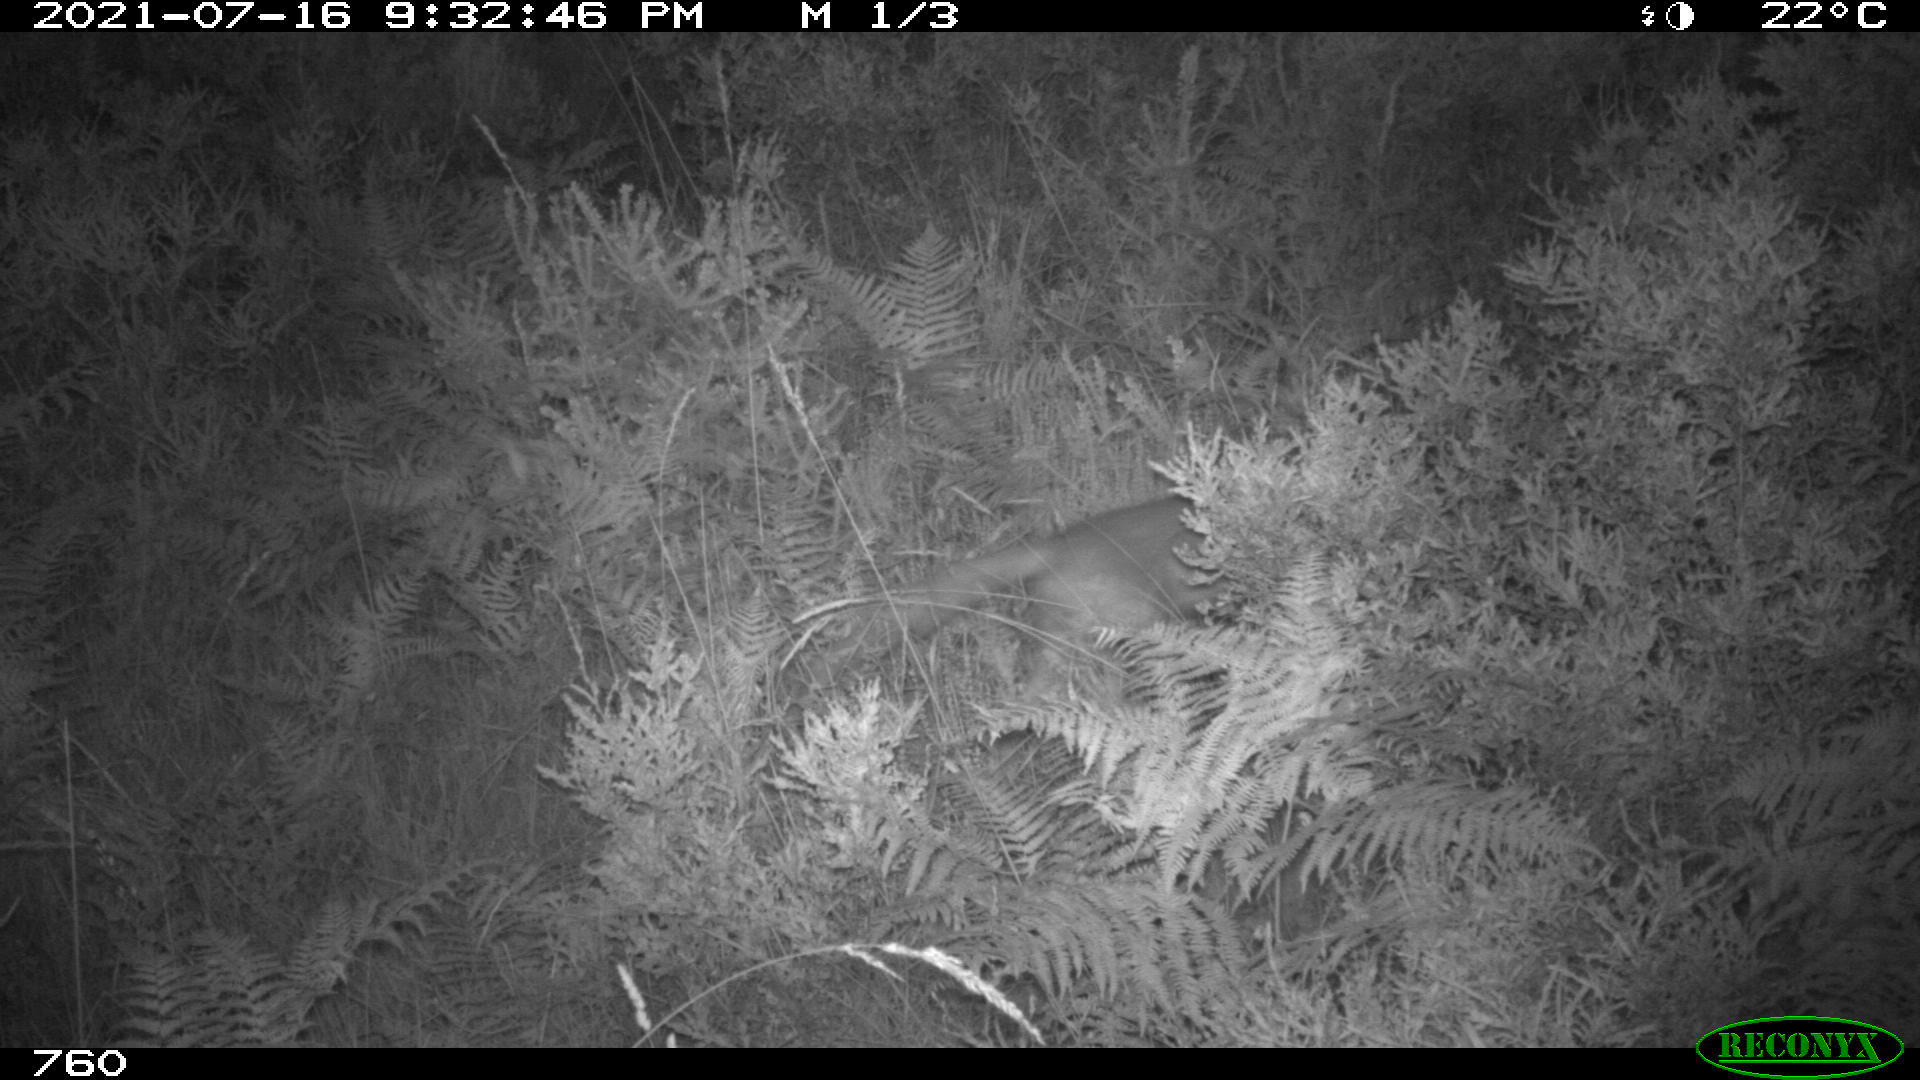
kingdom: Animalia
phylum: Chordata
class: Mammalia
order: Carnivora
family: Canidae
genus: Vulpes
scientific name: Vulpes vulpes
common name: Red fox
